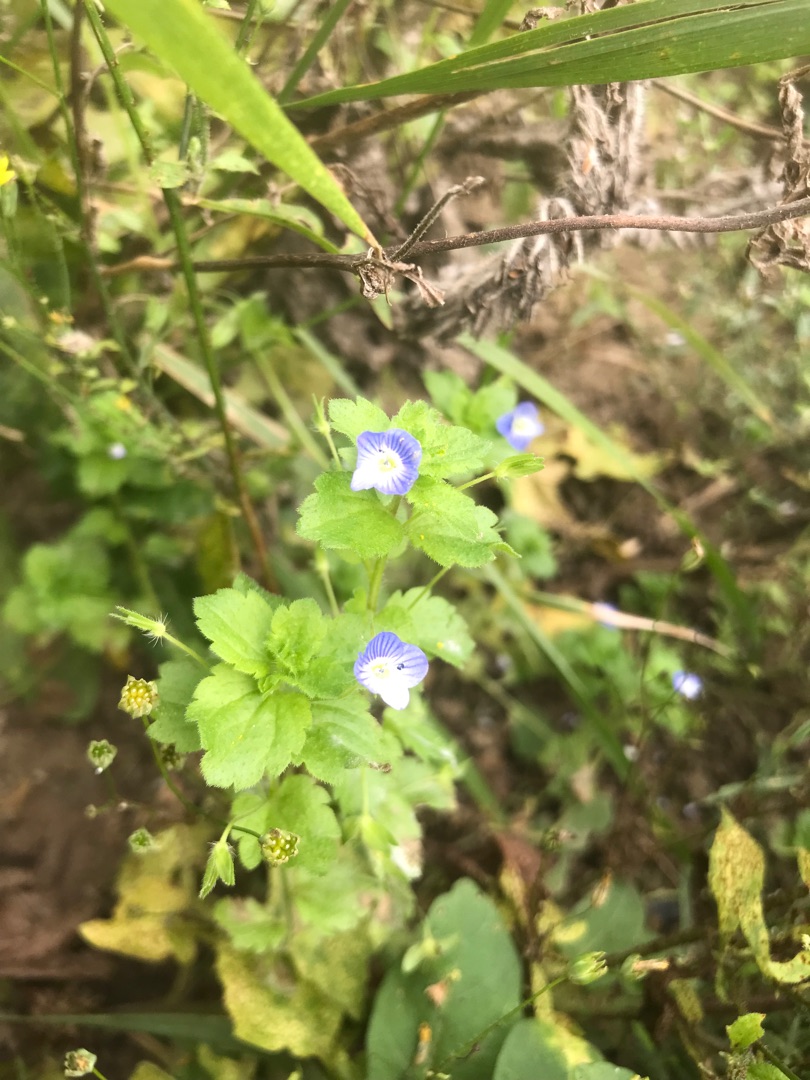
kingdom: Plantae
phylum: Tracheophyta
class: Magnoliopsida
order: Lamiales
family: Plantaginaceae
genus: Veronica
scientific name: Veronica persica
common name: Storkronet ærenpris
